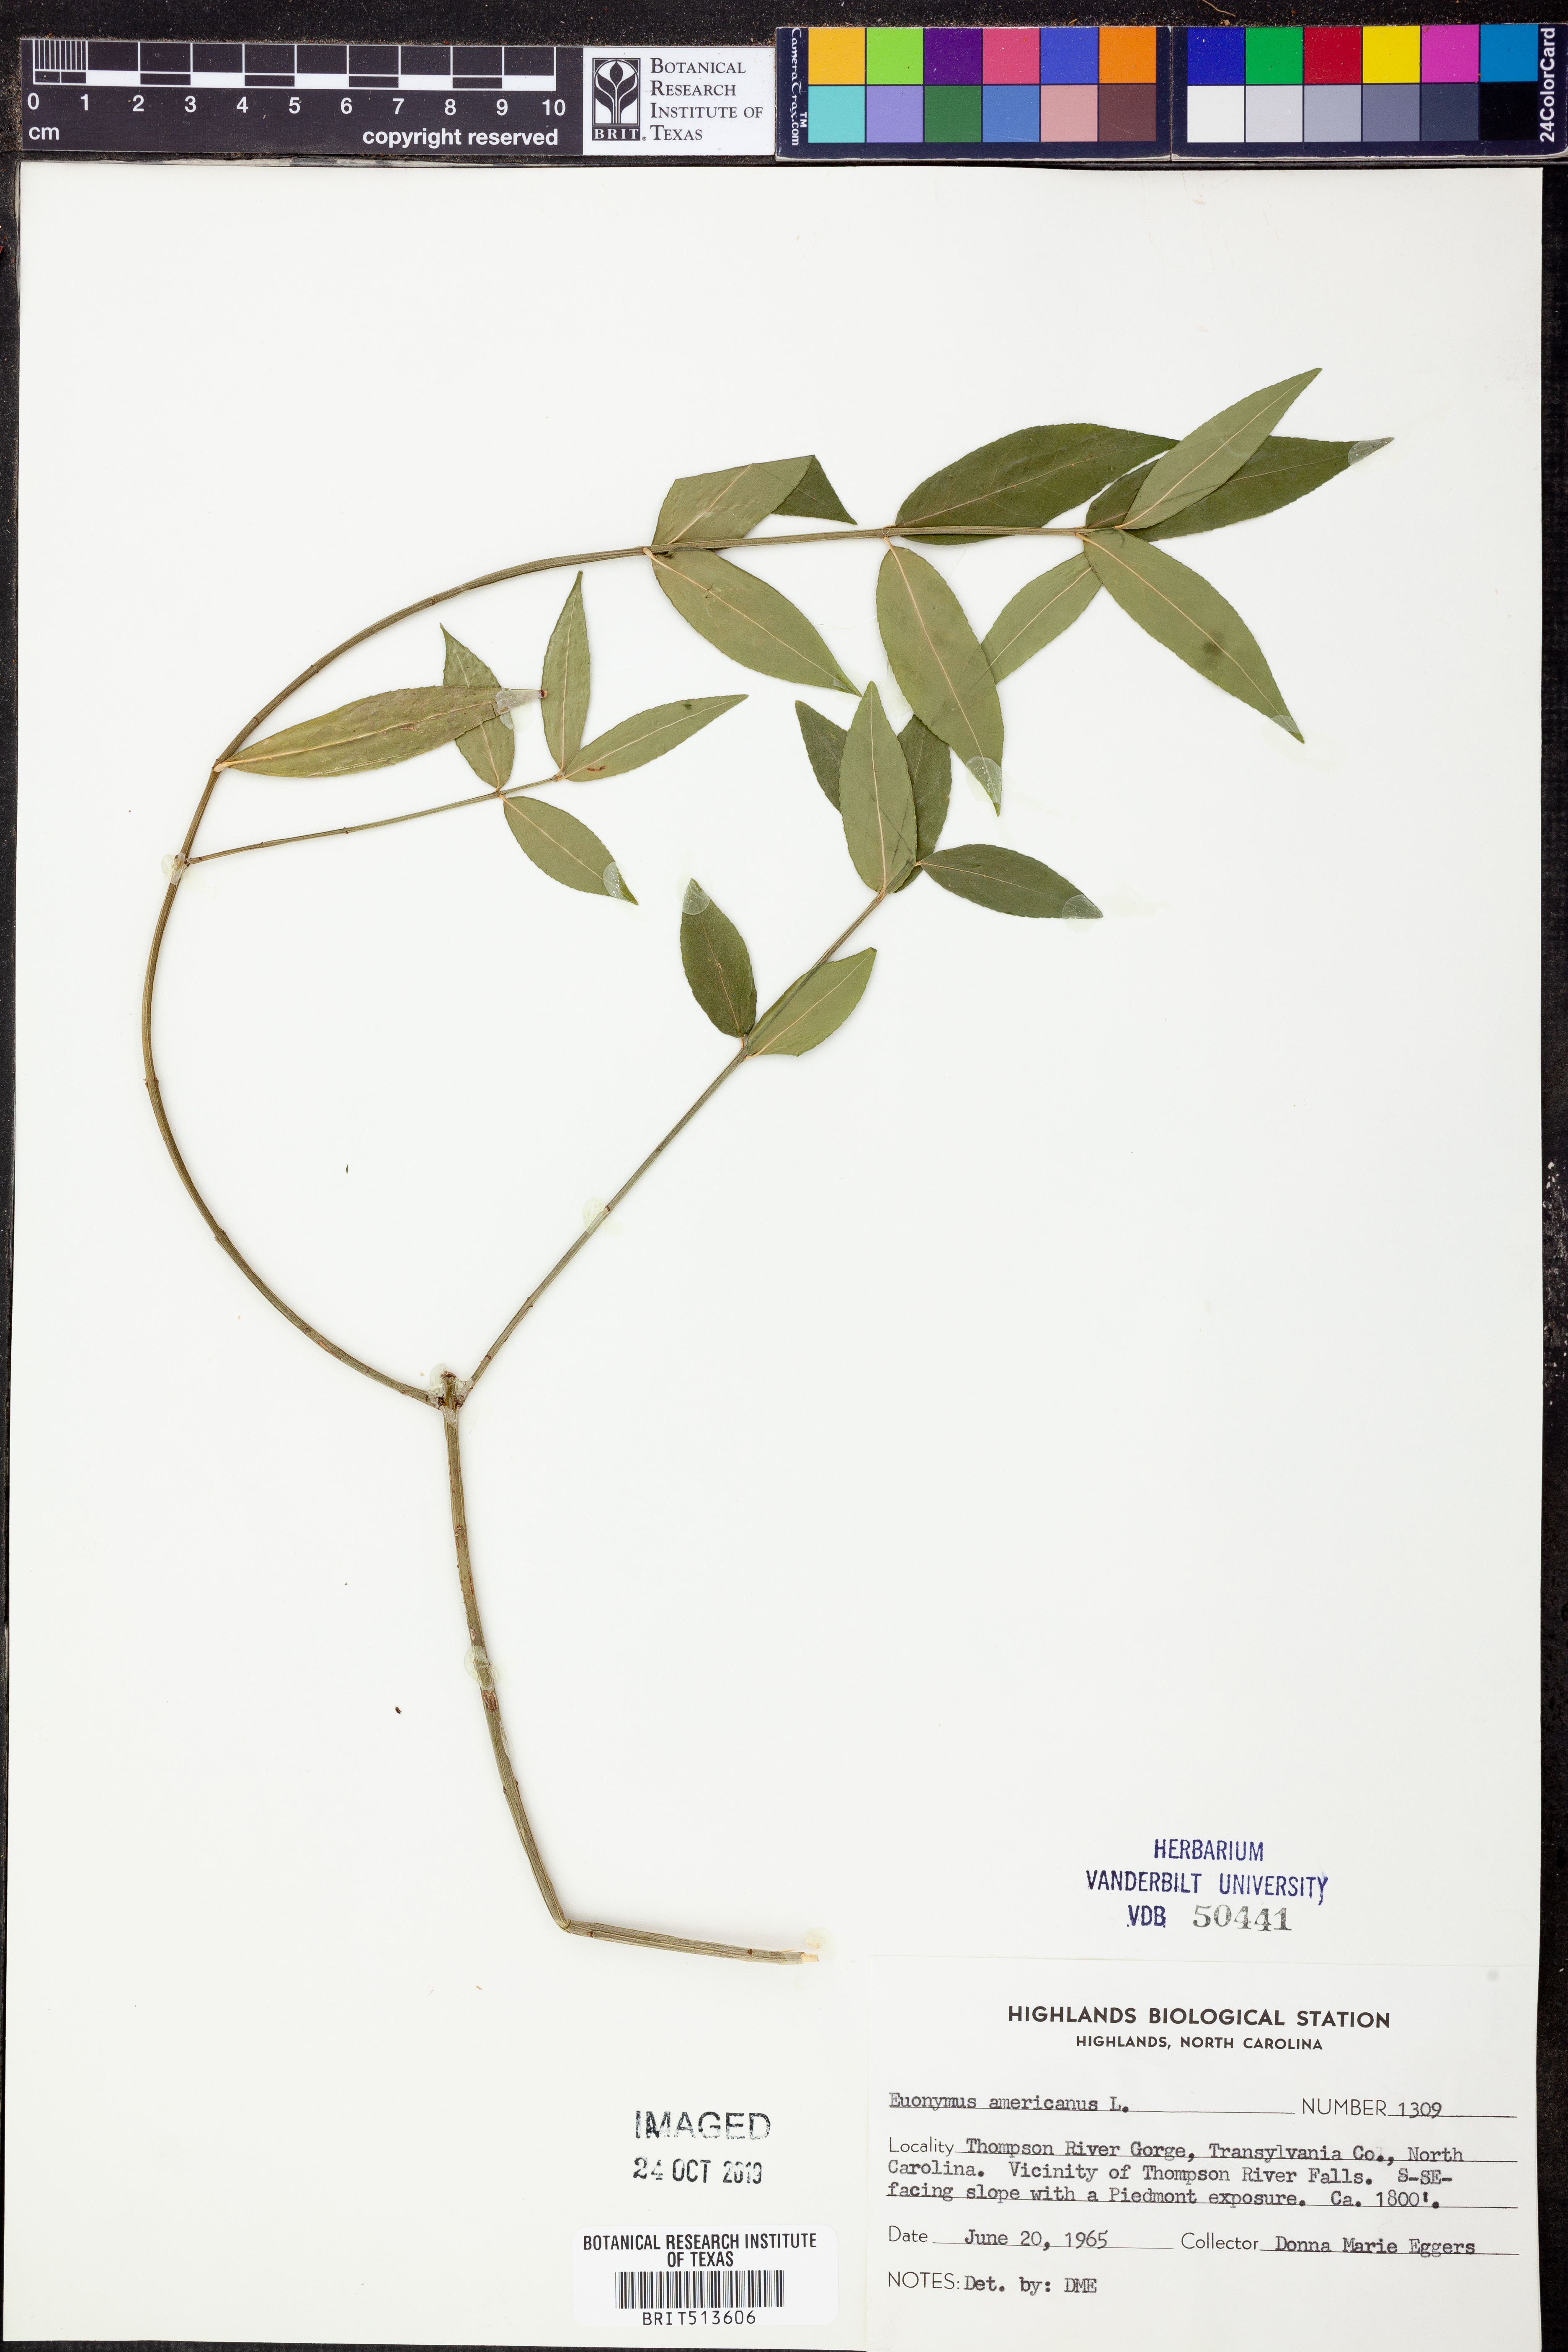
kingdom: Plantae
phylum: Tracheophyta
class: Magnoliopsida
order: Celastrales
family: Celastraceae
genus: Euonymus
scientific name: Euonymus americanus
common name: Bursting-heart
